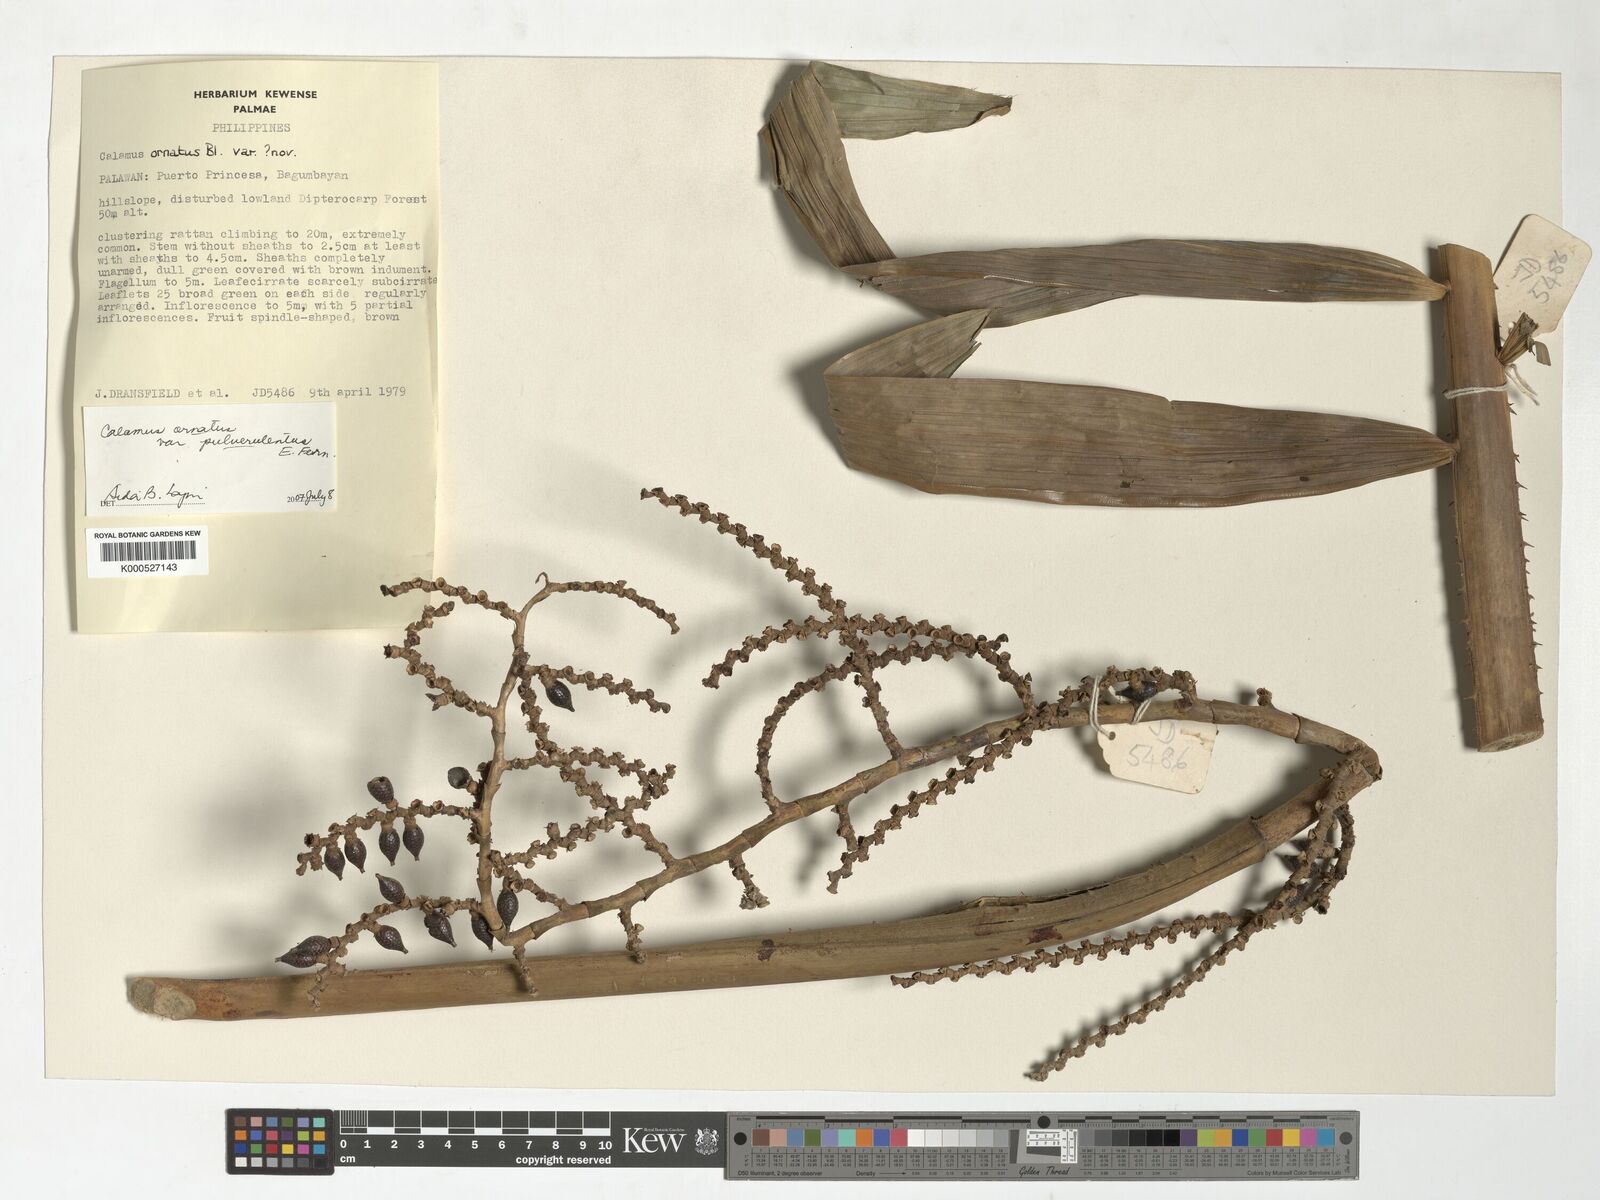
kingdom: Plantae
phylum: Tracheophyta
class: Liliopsida
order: Arecales
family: Arecaceae
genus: Calamus
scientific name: Calamus ornatus
